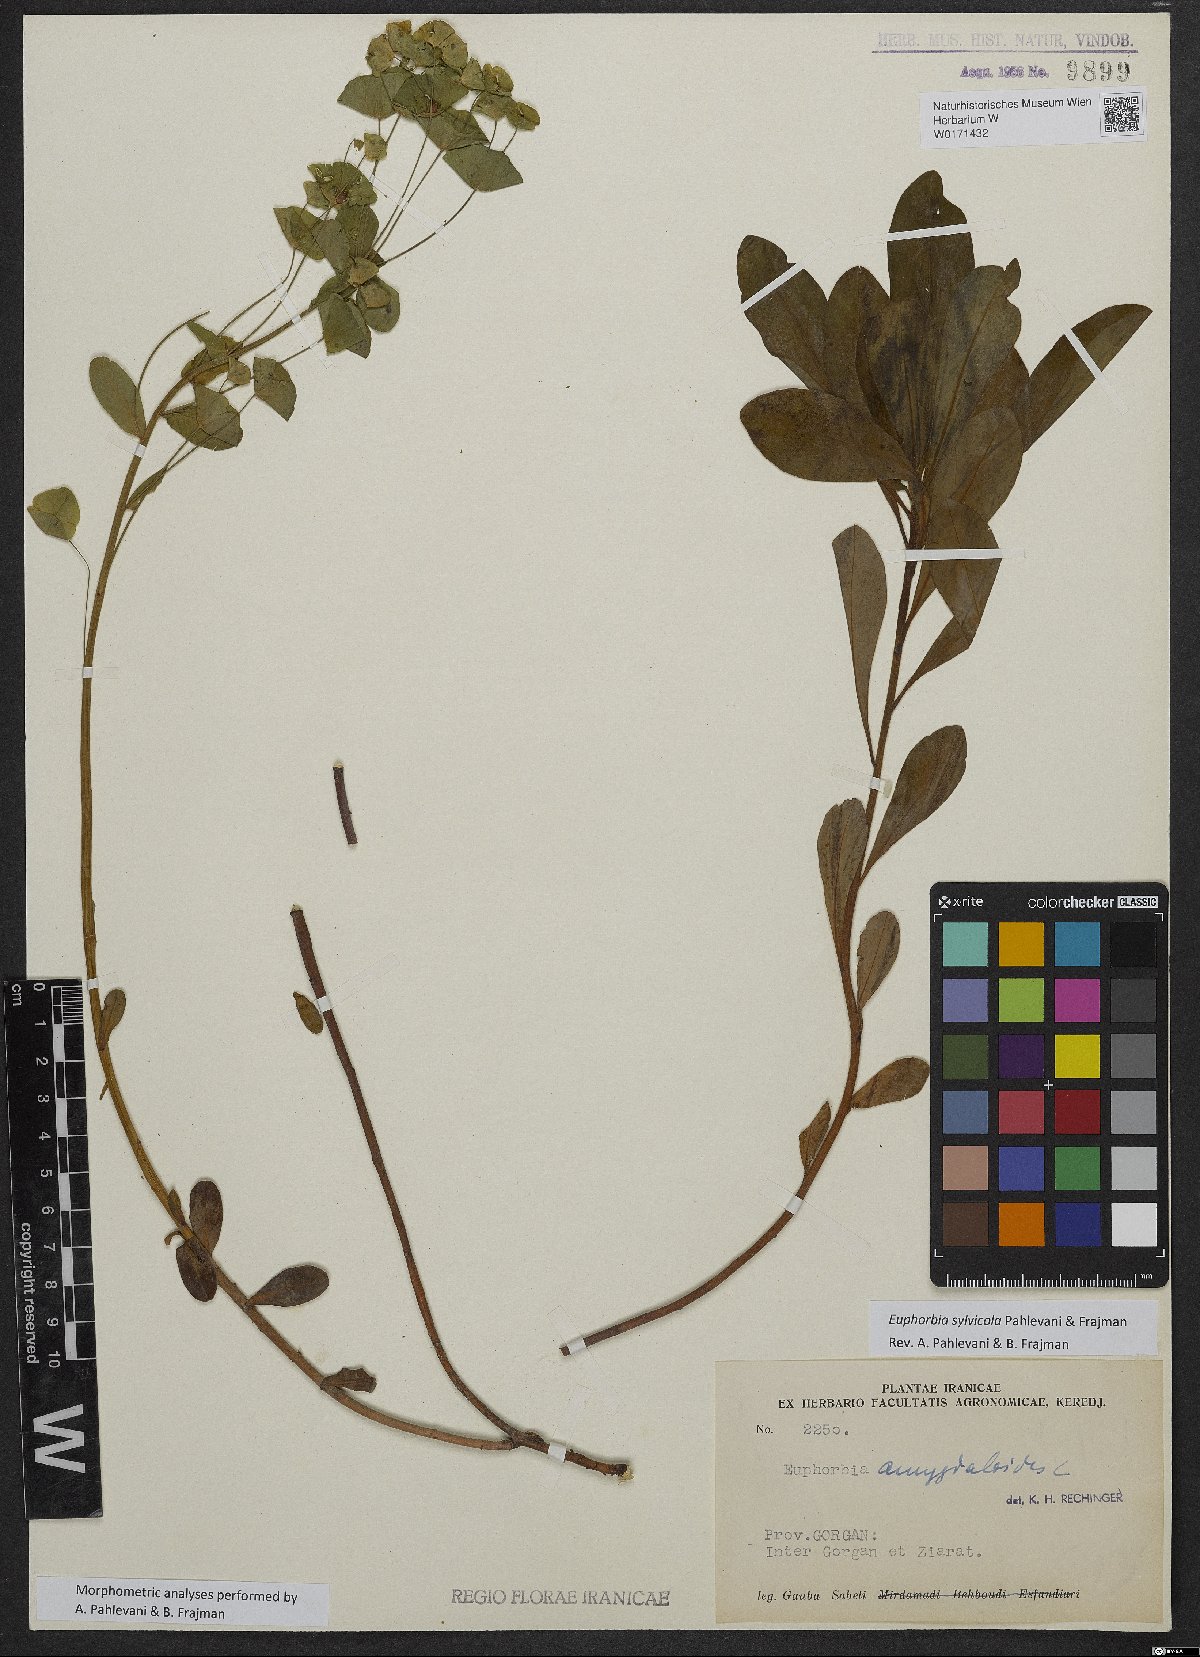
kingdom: Plantae
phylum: Tracheophyta
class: Magnoliopsida
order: Malpighiales
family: Euphorbiaceae
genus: Euphorbia
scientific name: Euphorbia juttae
